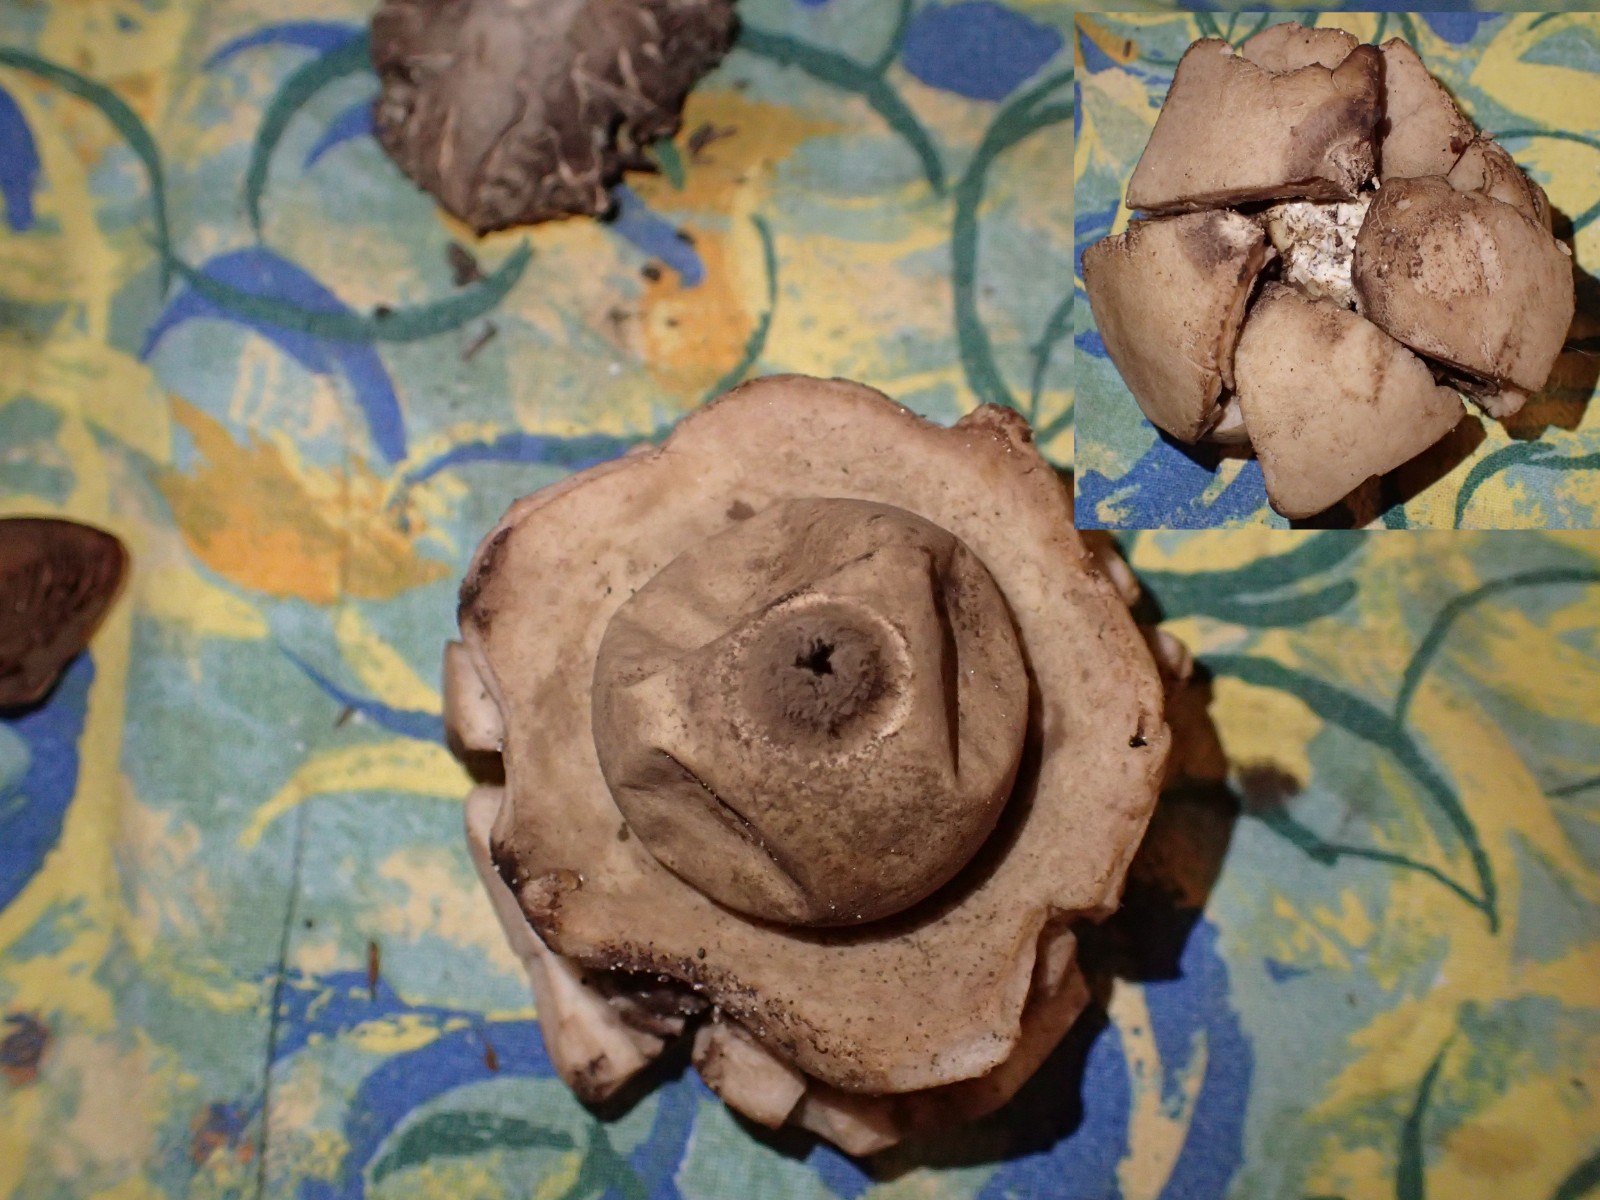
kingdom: Fungi
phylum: Basidiomycota
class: Agaricomycetes
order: Geastrales
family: Geastraceae
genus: Geastrum
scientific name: Geastrum michelianum
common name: kødet stjernebold
